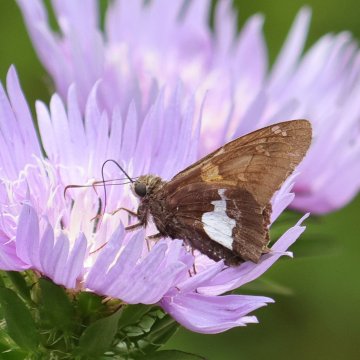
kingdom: Animalia
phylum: Arthropoda
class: Insecta
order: Lepidoptera
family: Hesperiidae
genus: Epargyreus
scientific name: Epargyreus clarus
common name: Silver-spotted Skipper
